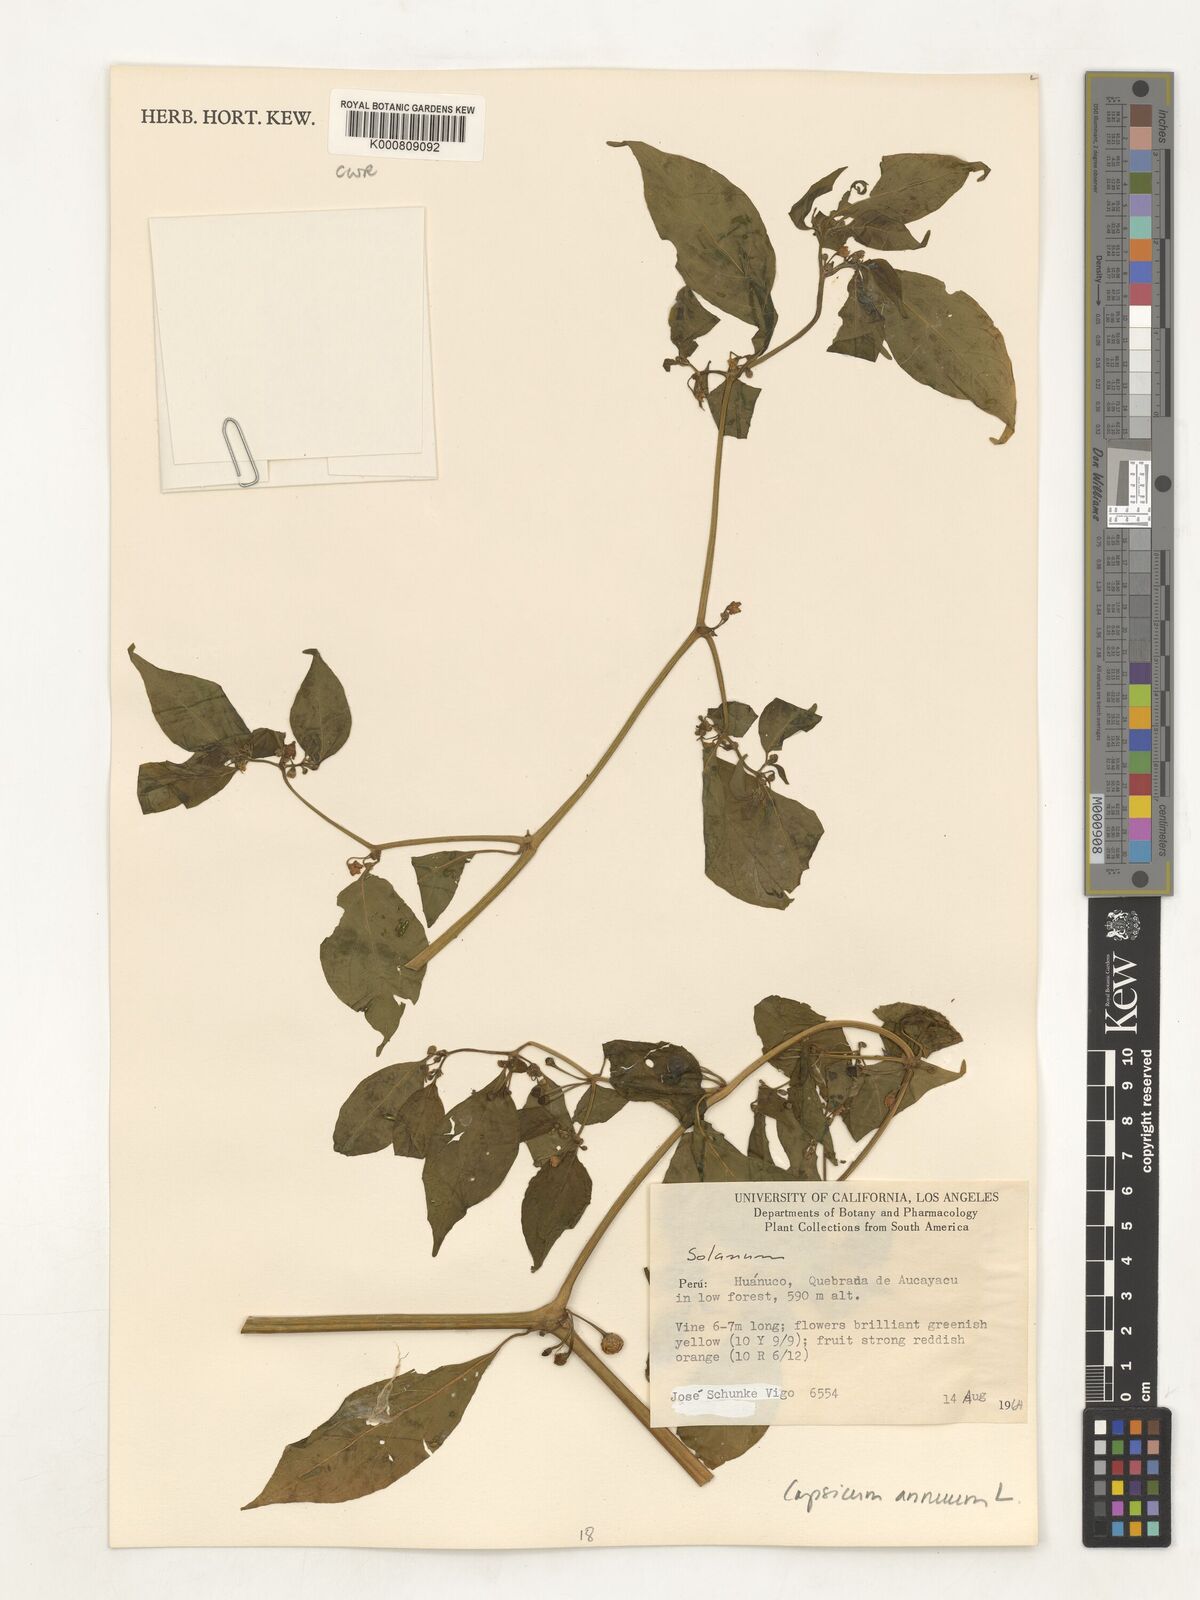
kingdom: Plantae
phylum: Tracheophyta
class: Magnoliopsida
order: Solanales
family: Solanaceae
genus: Capsicum
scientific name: Capsicum annuum
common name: Sweet pepper
